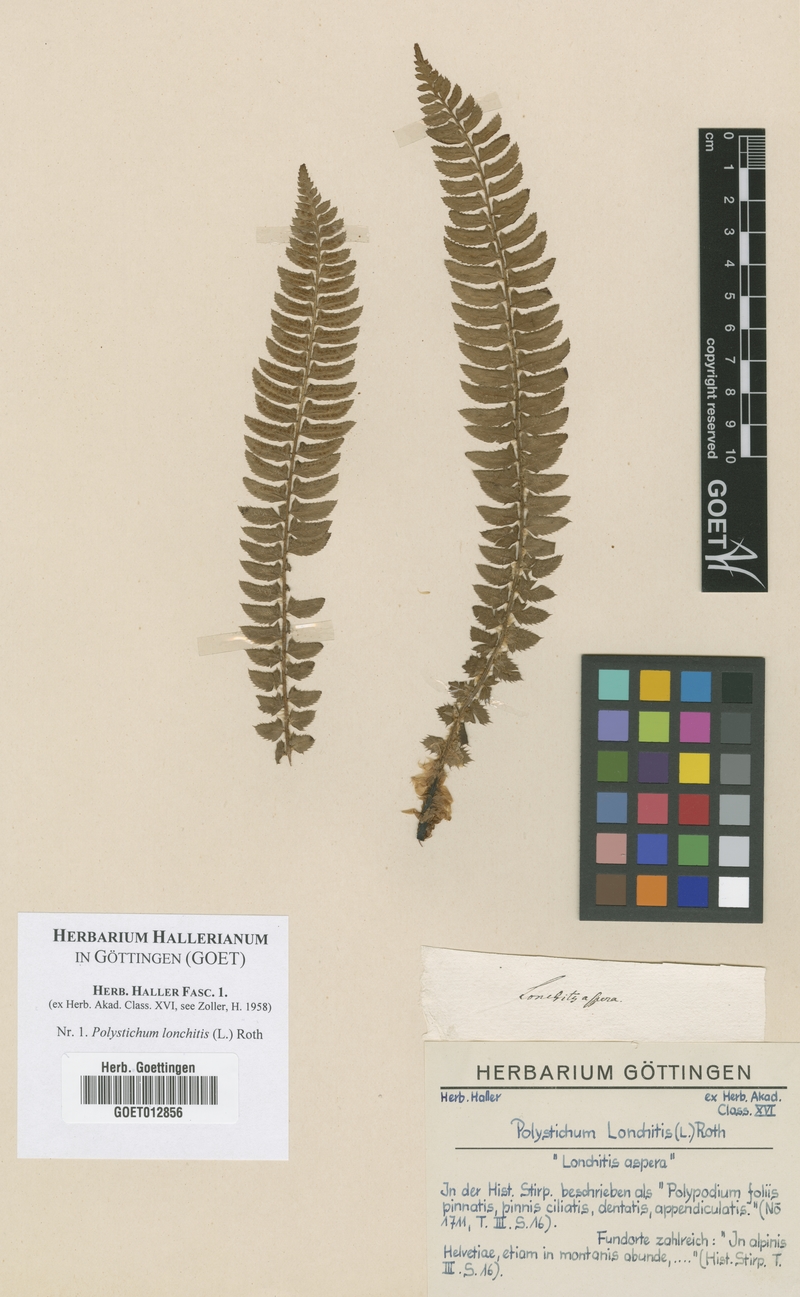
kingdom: Plantae
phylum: Tracheophyta
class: Polypodiopsida
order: Polypodiales
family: Dryopteridaceae
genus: Polystichum
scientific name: Polystichum lonchitis
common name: Holly fern
